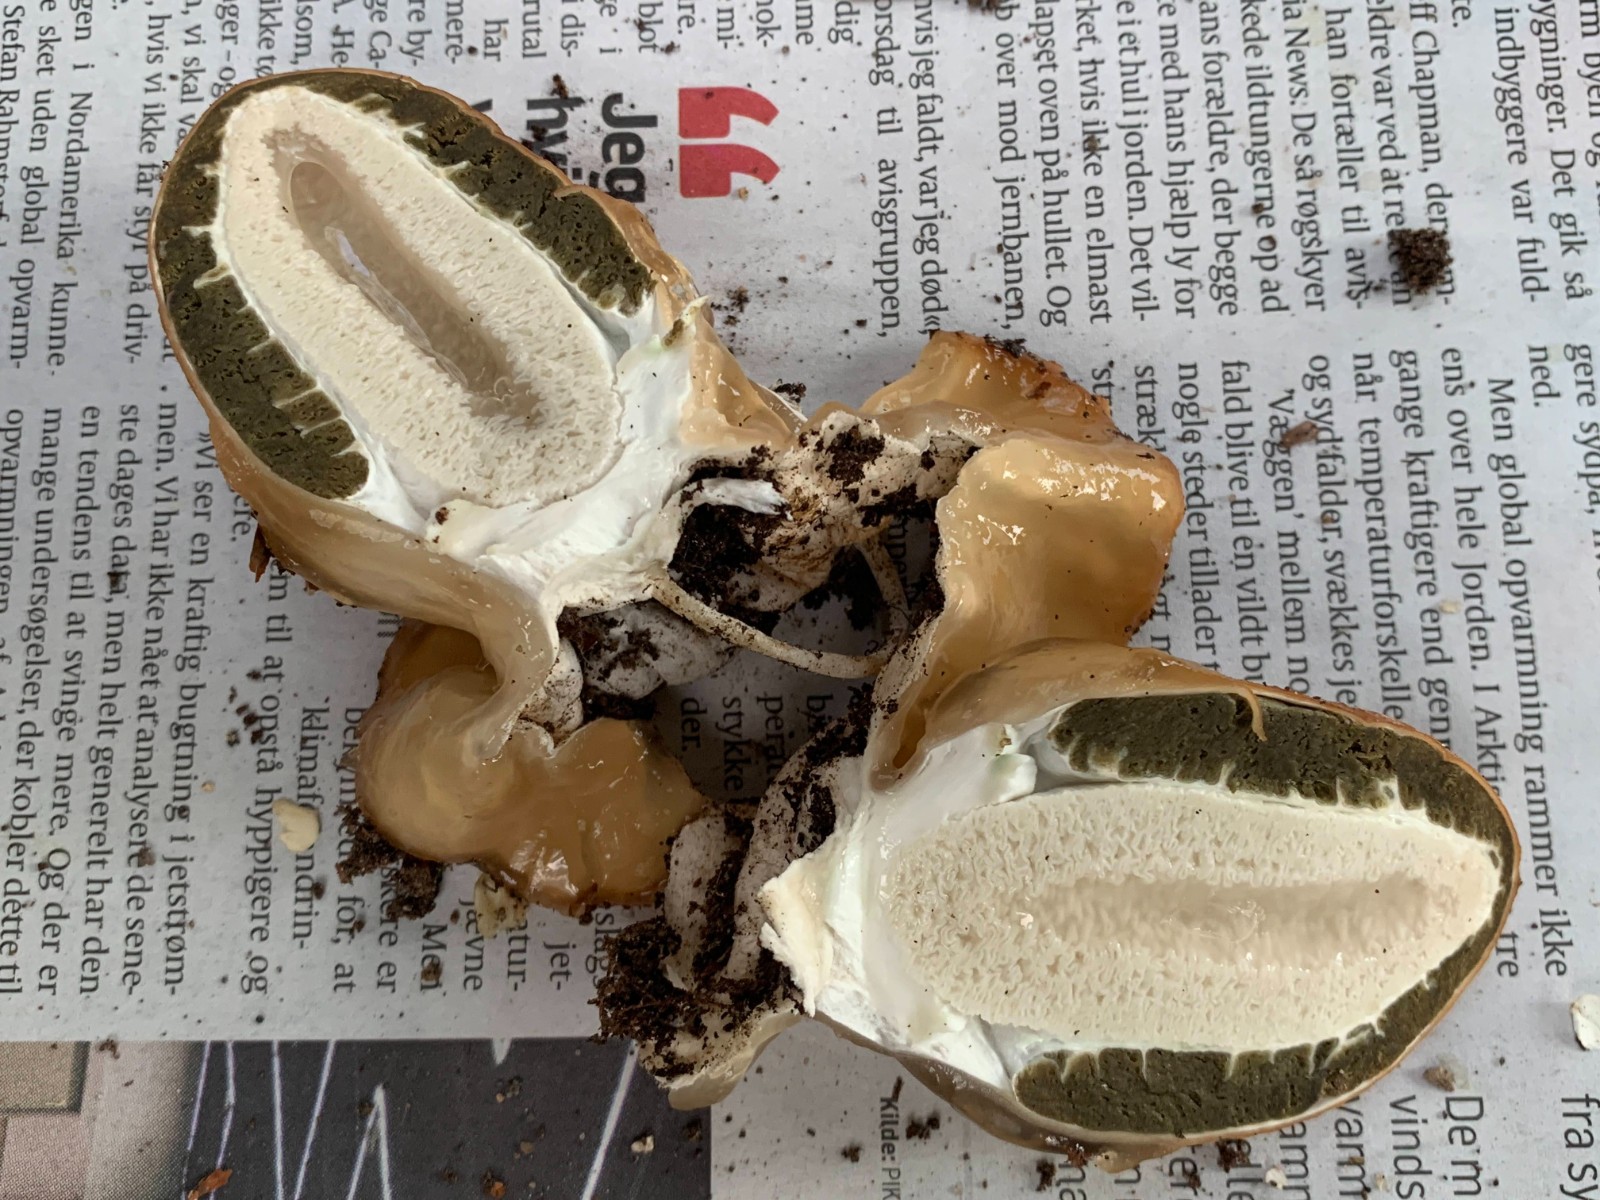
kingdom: Fungi
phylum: Basidiomycota
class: Agaricomycetes
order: Phallales
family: Phallaceae
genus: Phallus
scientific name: Phallus impudicus
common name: almindelig stinksvamp
